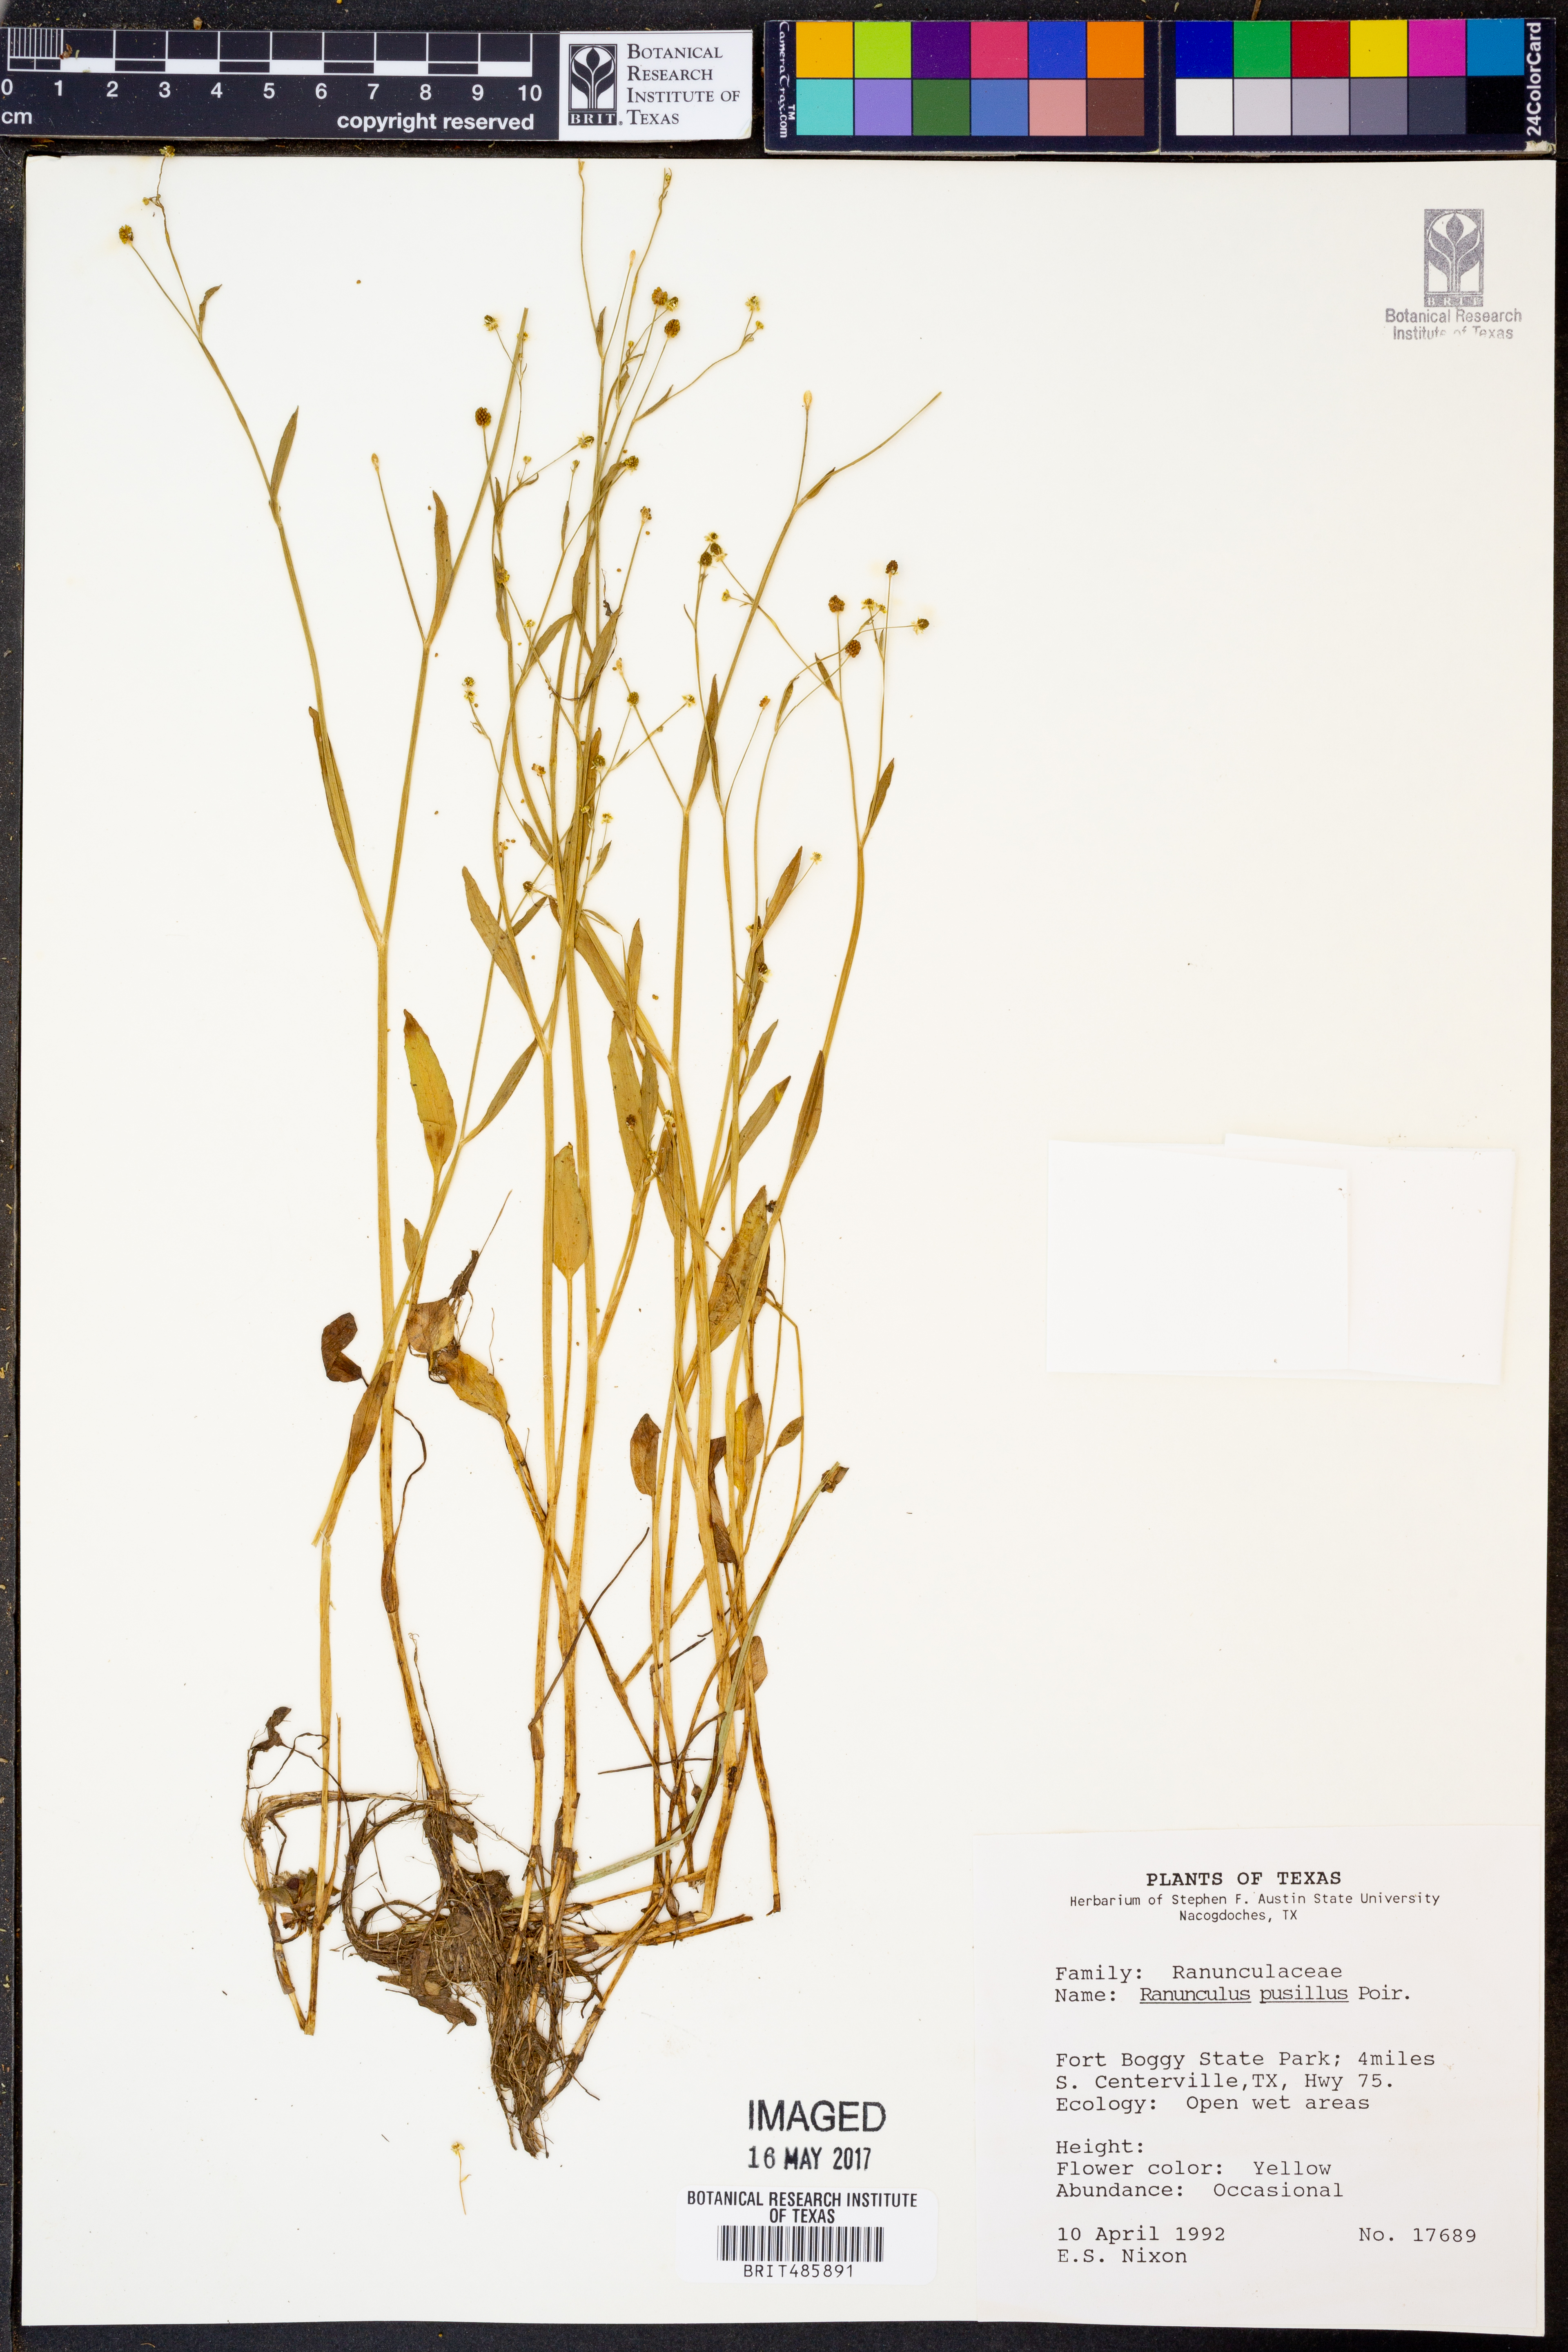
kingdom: Plantae
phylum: Tracheophyta
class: Magnoliopsida
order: Ranunculales
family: Ranunculaceae
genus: Ranunculus
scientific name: Ranunculus pusillus
